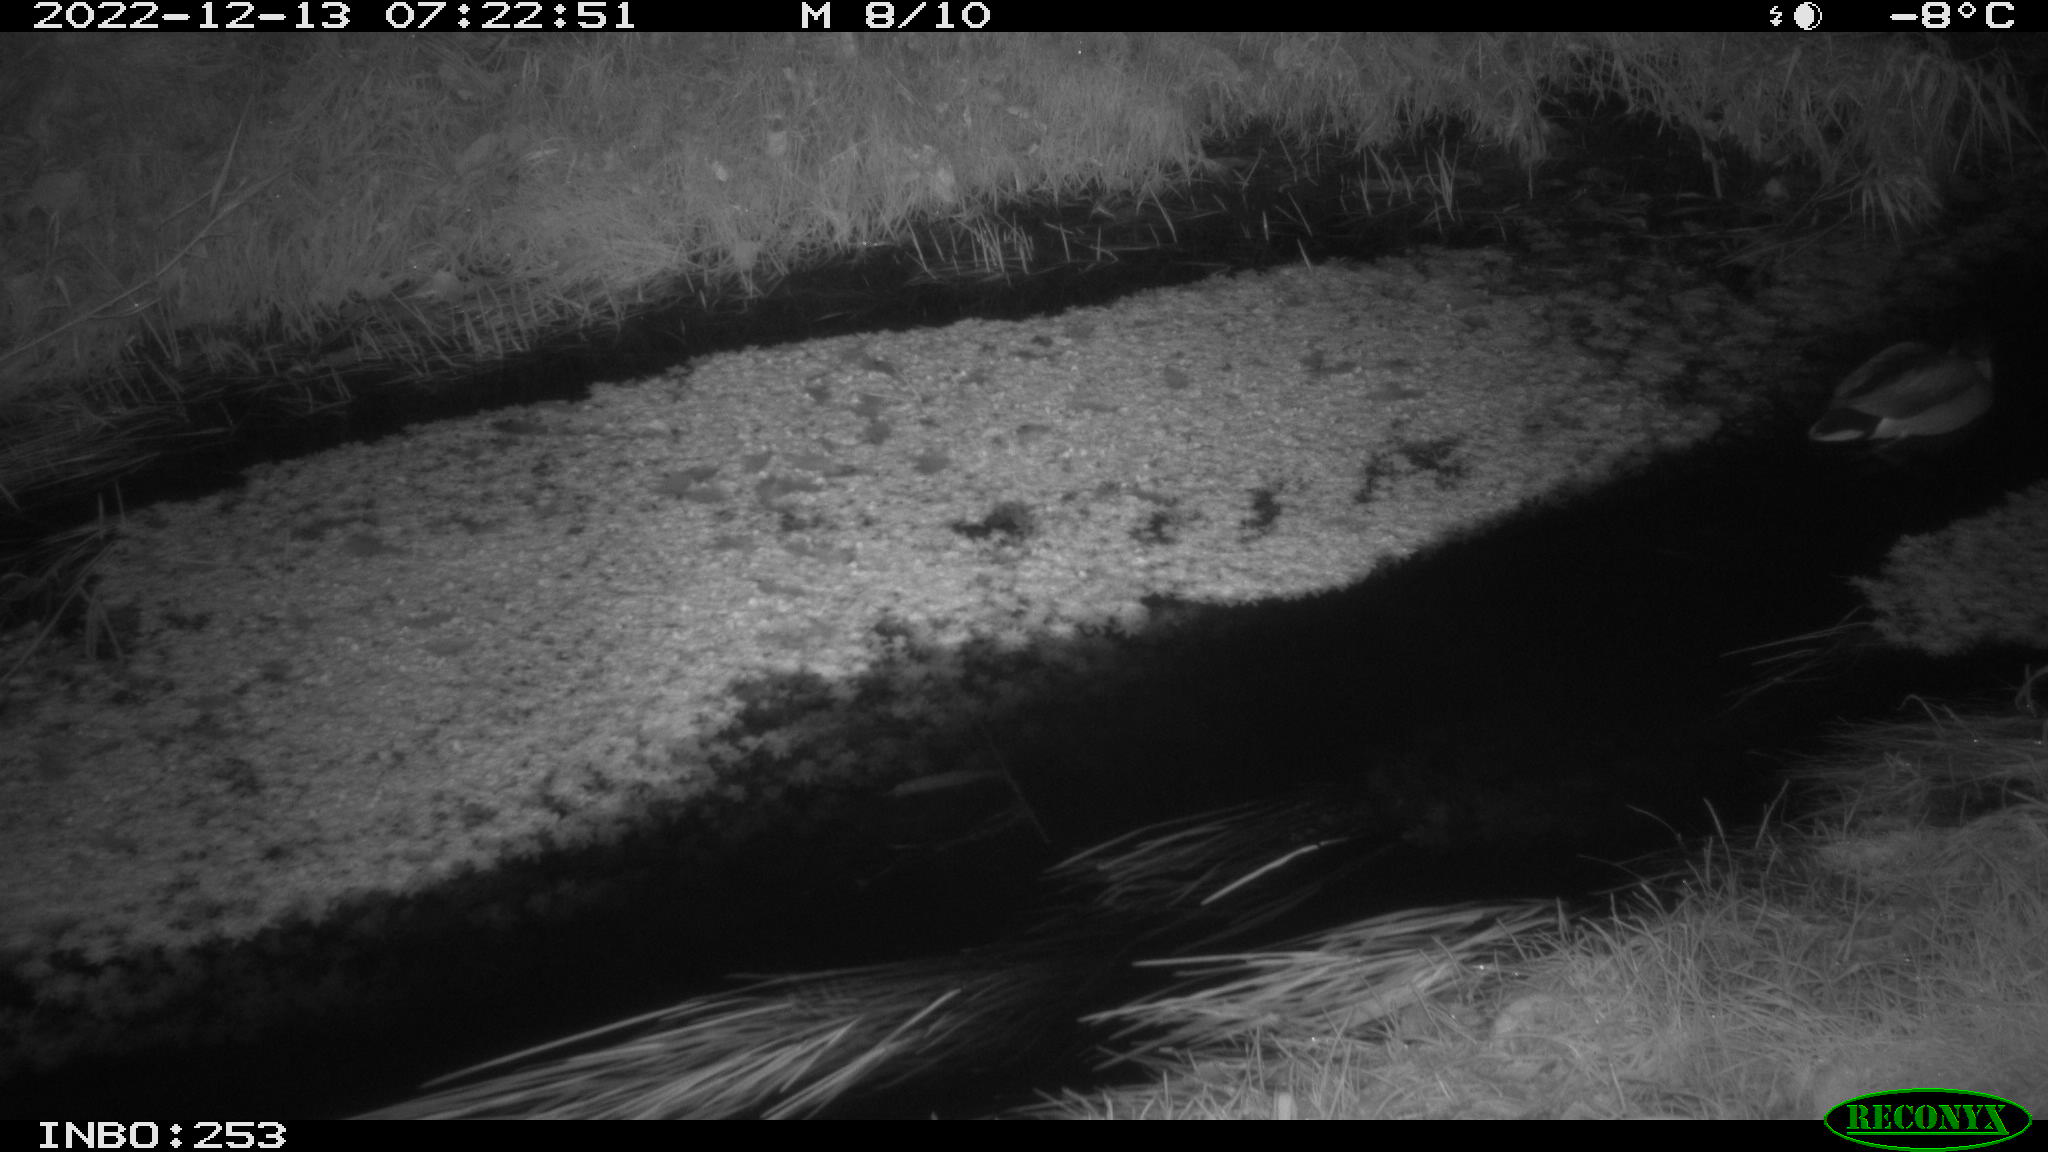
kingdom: Animalia
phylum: Chordata
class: Aves
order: Anseriformes
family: Anatidae
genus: Anas
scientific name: Anas
